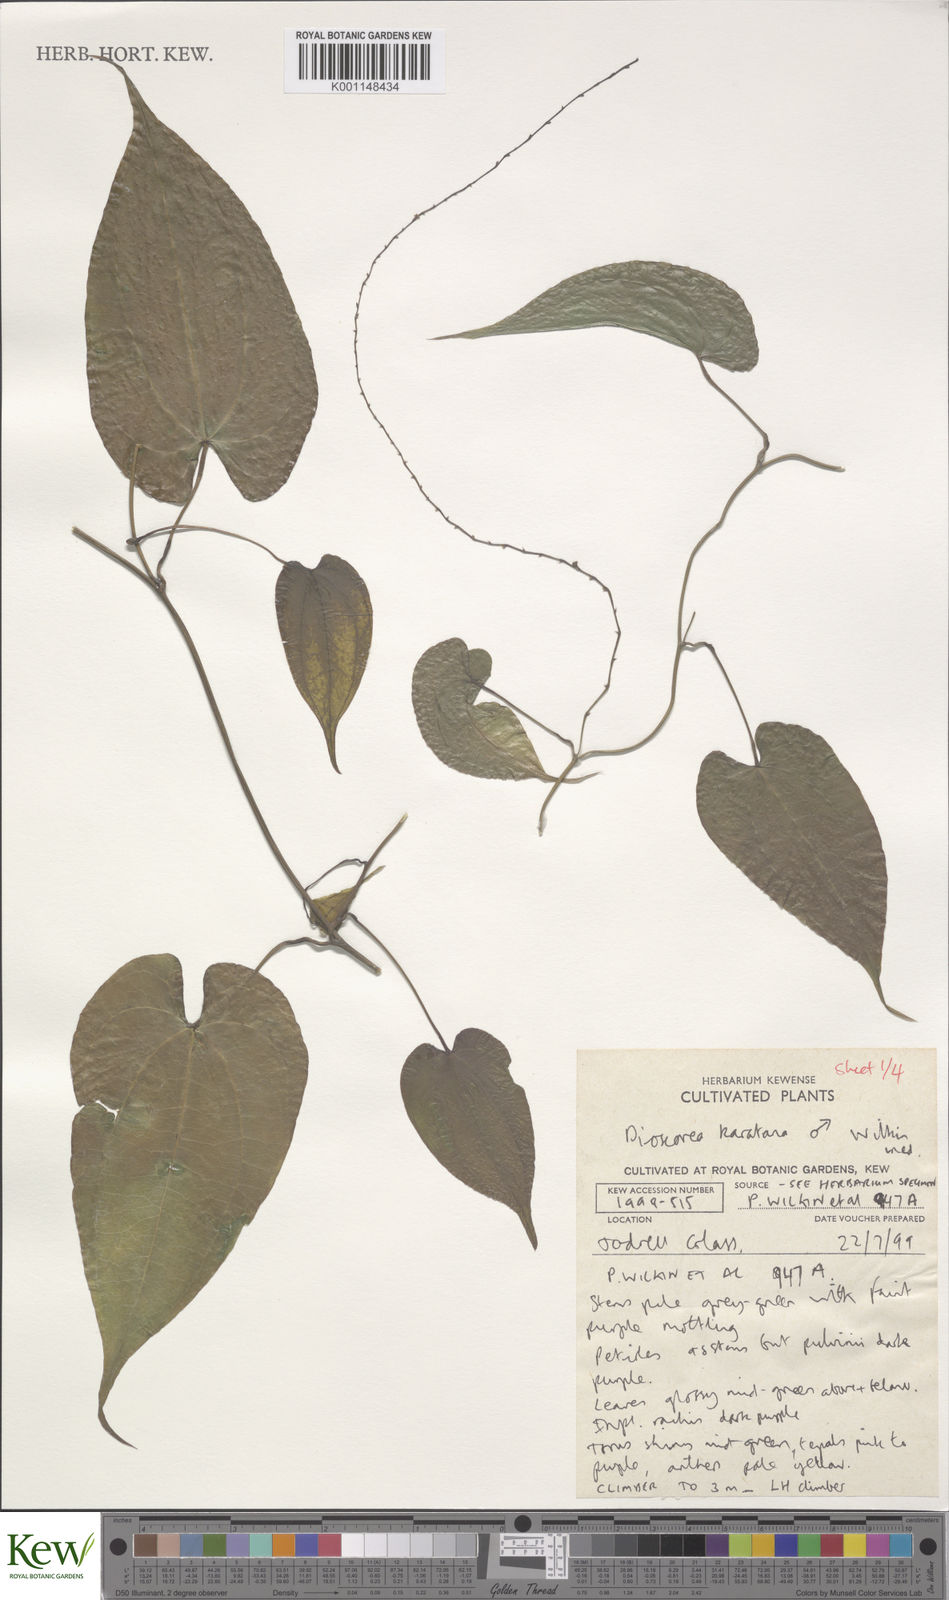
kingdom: Plantae
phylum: Tracheophyta
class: Liliopsida
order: Dioscoreales
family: Dioscoreaceae
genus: Dioscorea
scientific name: Dioscorea madecassa
